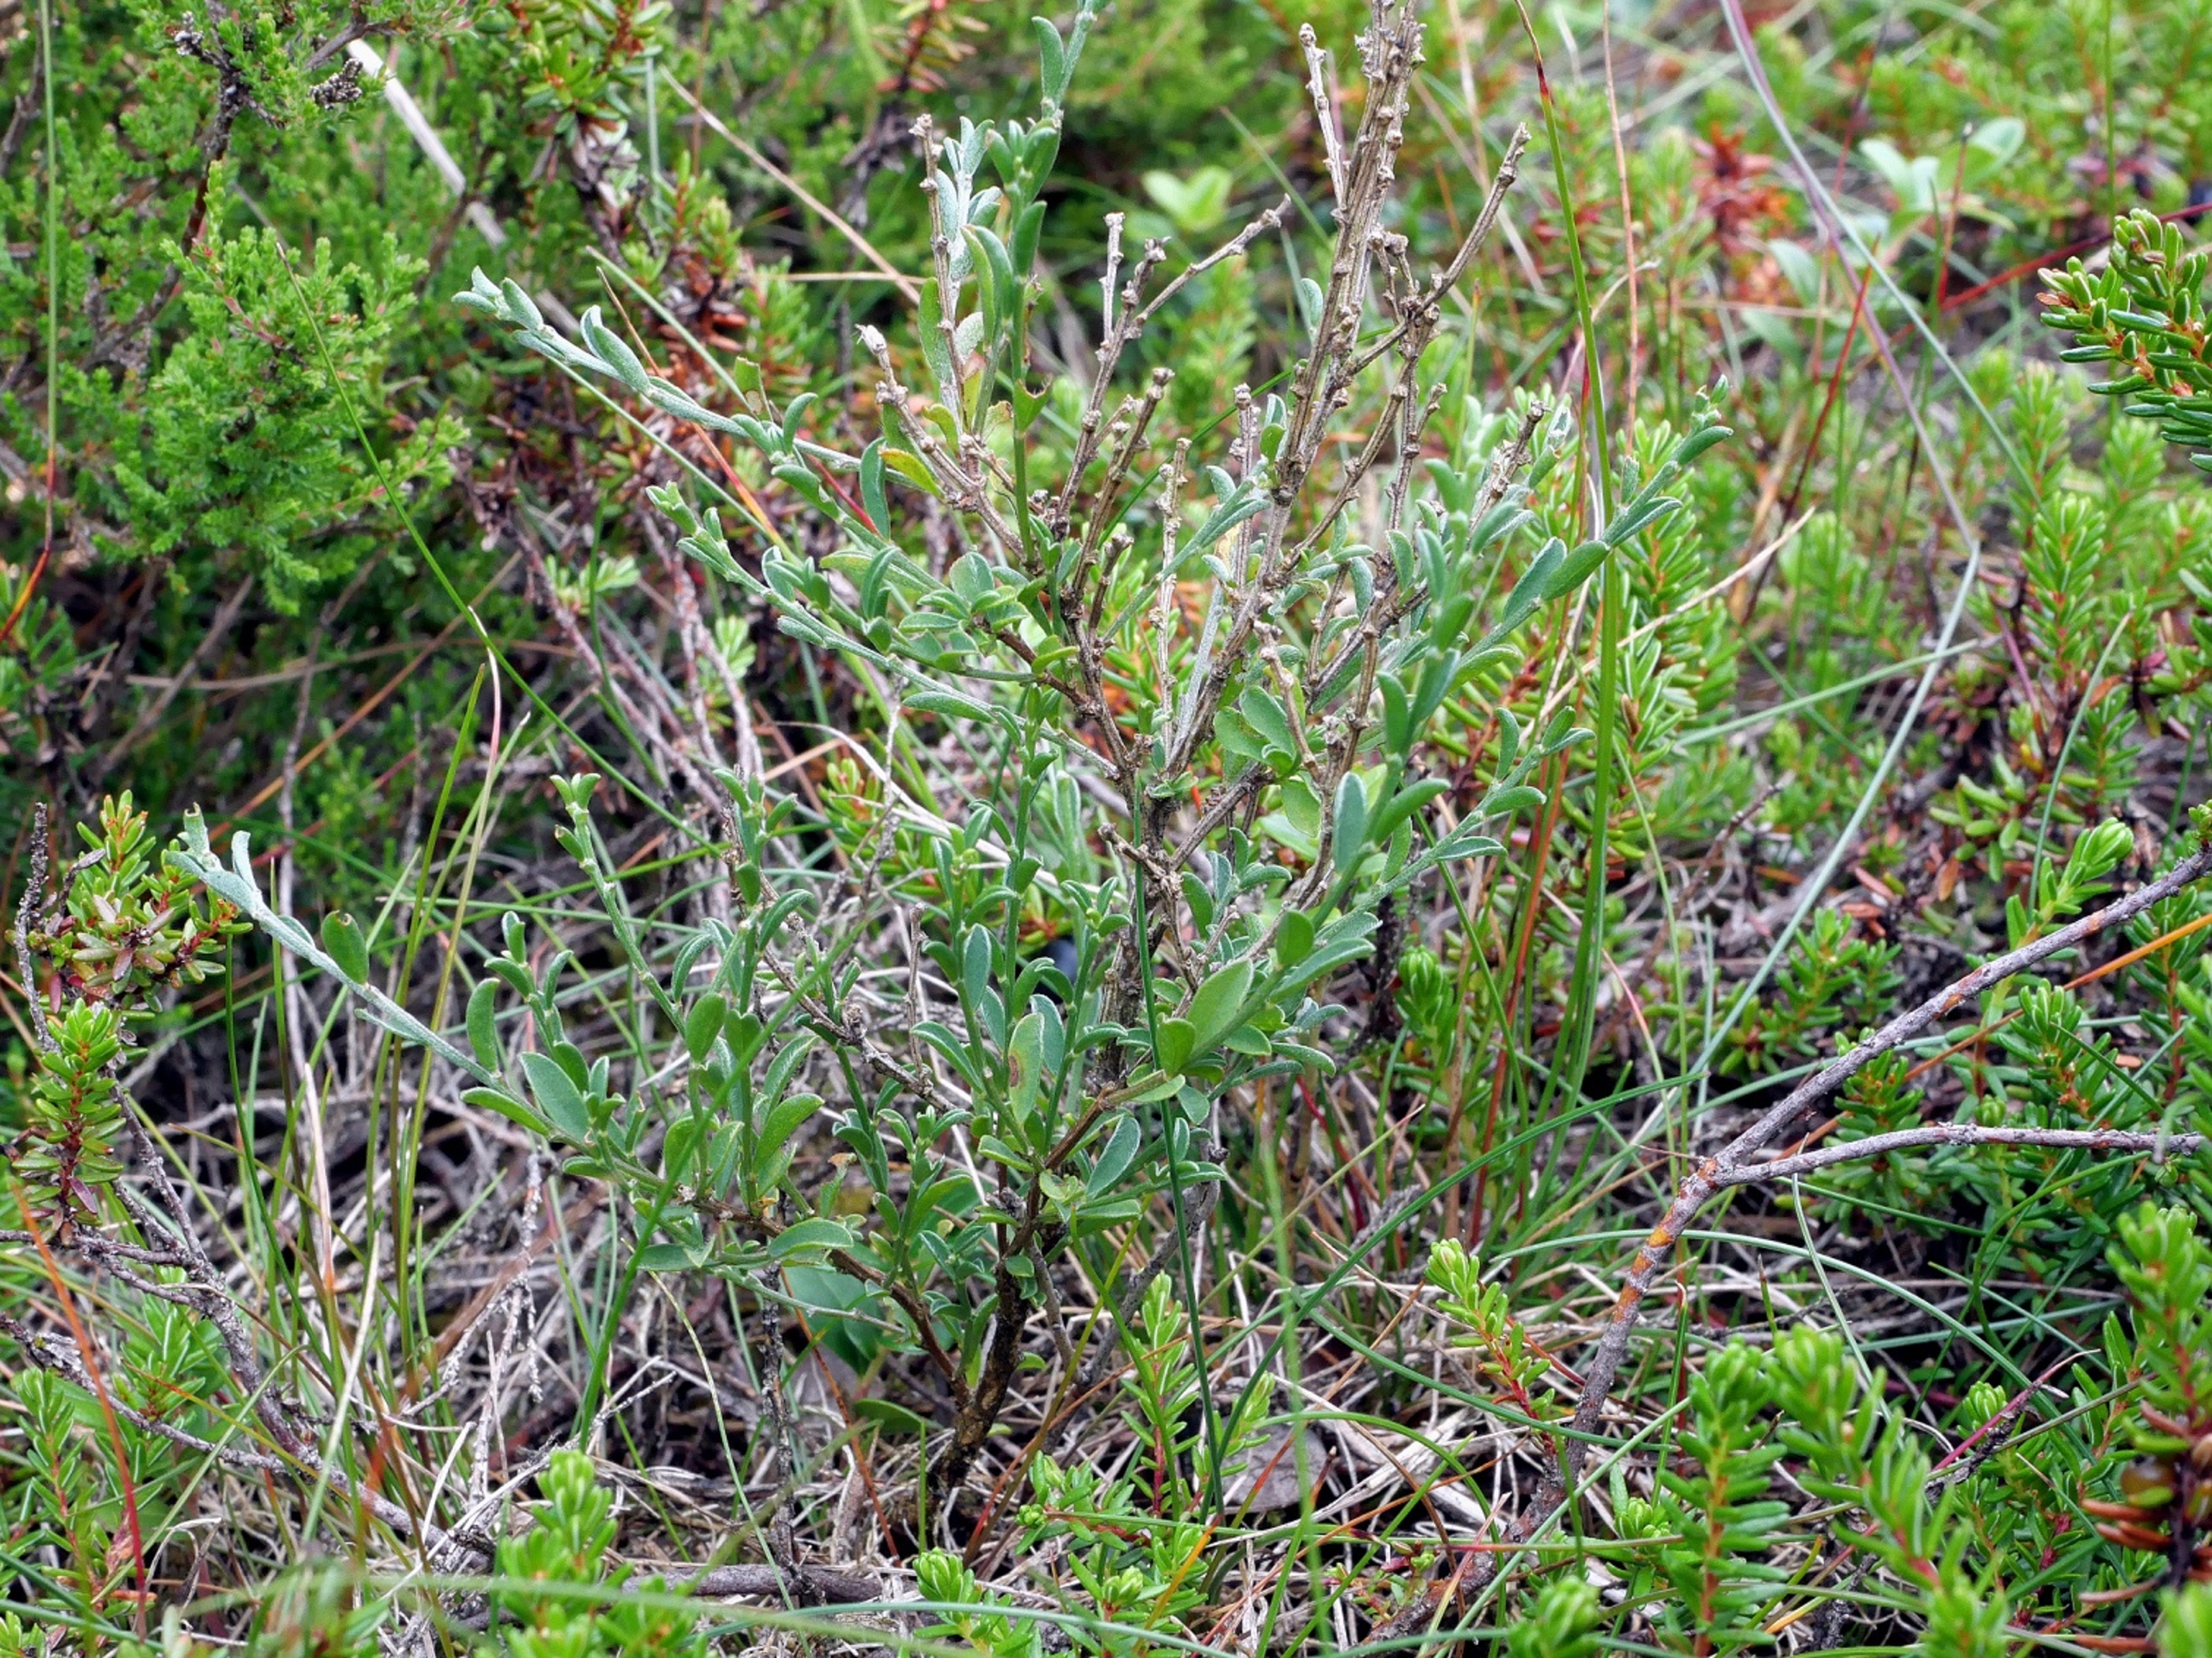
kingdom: Plantae
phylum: Tracheophyta
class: Magnoliopsida
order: Fabales
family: Fabaceae
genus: Genista
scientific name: Genista pilosa
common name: Håret visse
